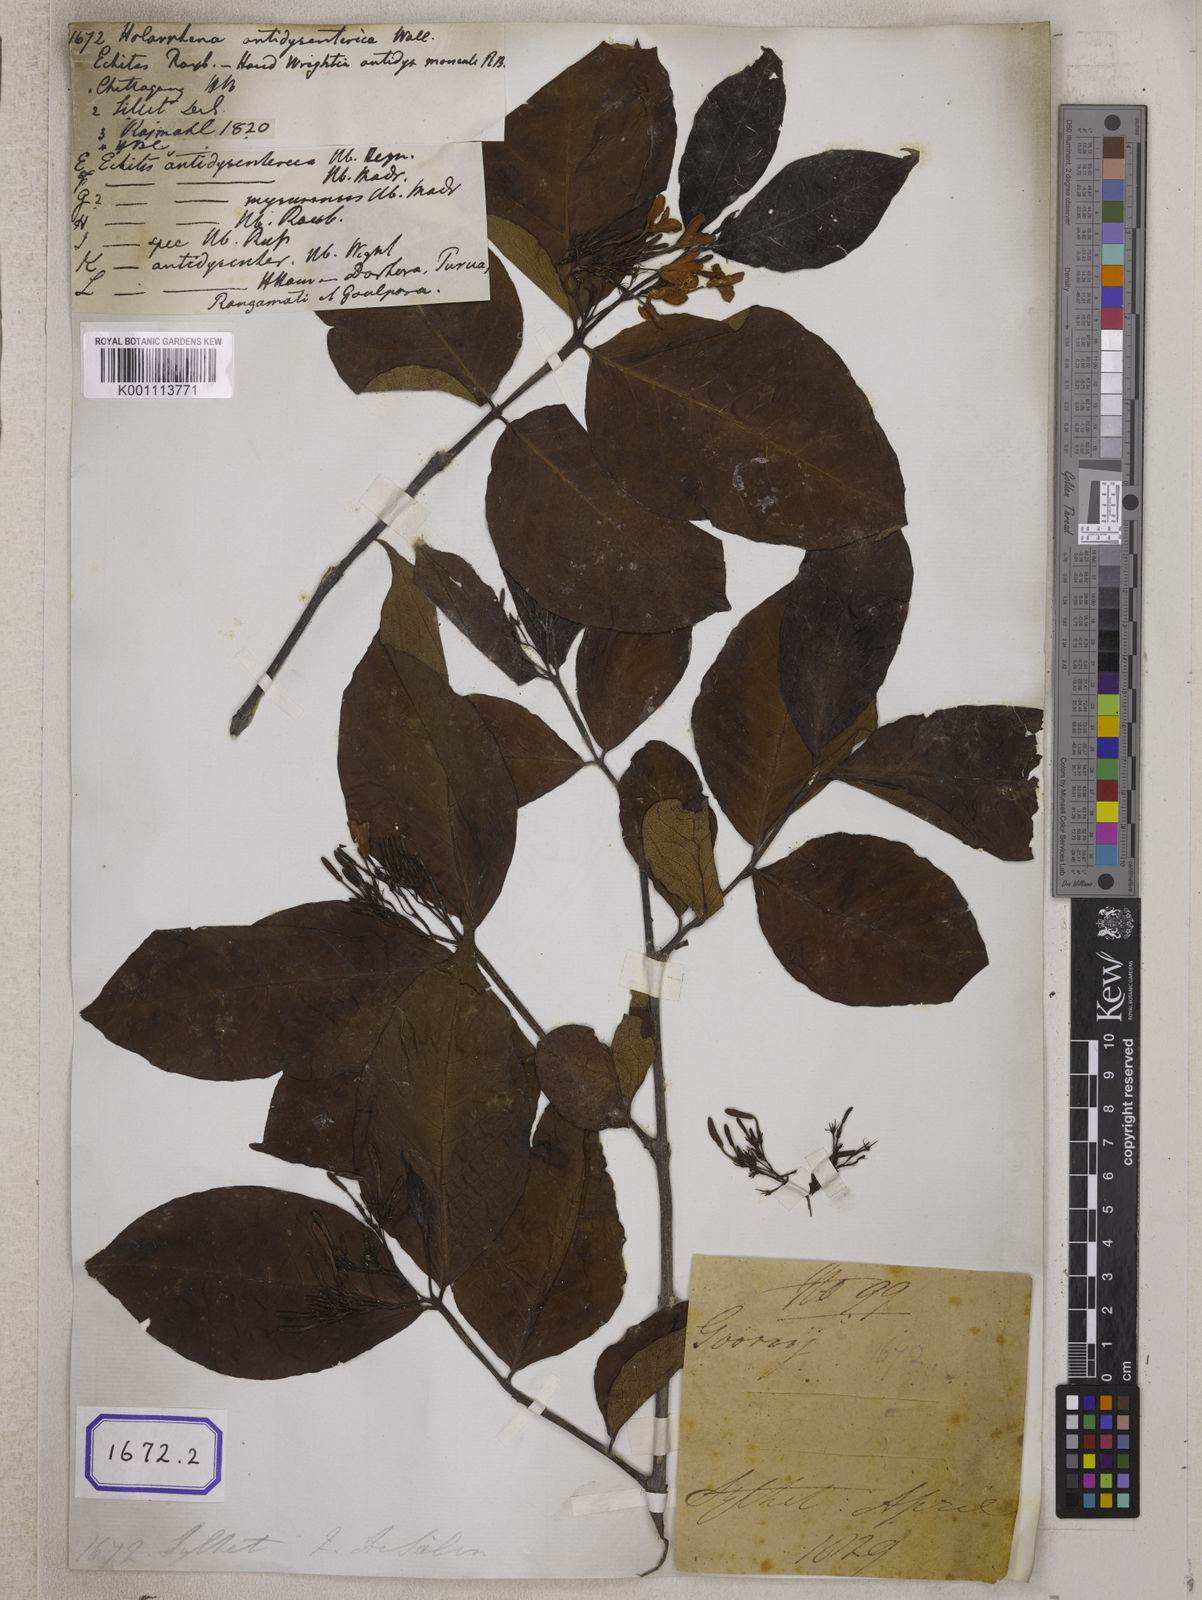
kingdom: Plantae
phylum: Tracheophyta
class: Magnoliopsida
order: Gentianales
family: Apocynaceae
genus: Holarrhena
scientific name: Holarrhena pubescens
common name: Bitter oleander
